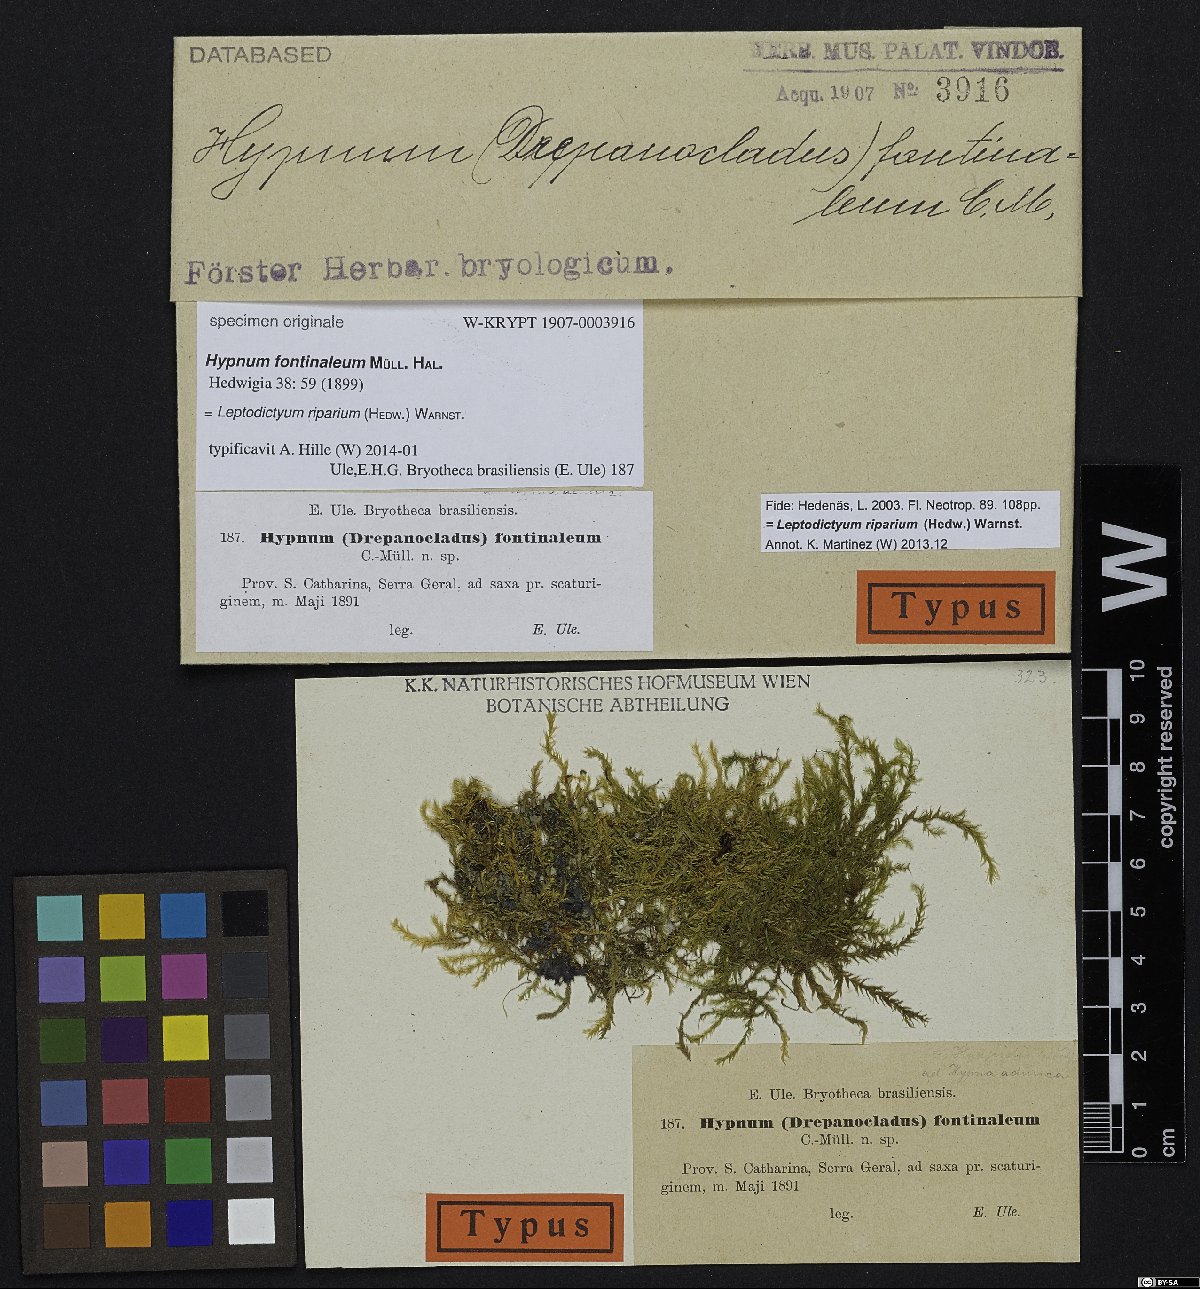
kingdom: Plantae
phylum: Bryophyta
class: Bryopsida
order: Hypnales
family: Amblystegiaceae
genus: Leptodictyum
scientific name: Leptodictyum riparium
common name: Riparian feather moss
